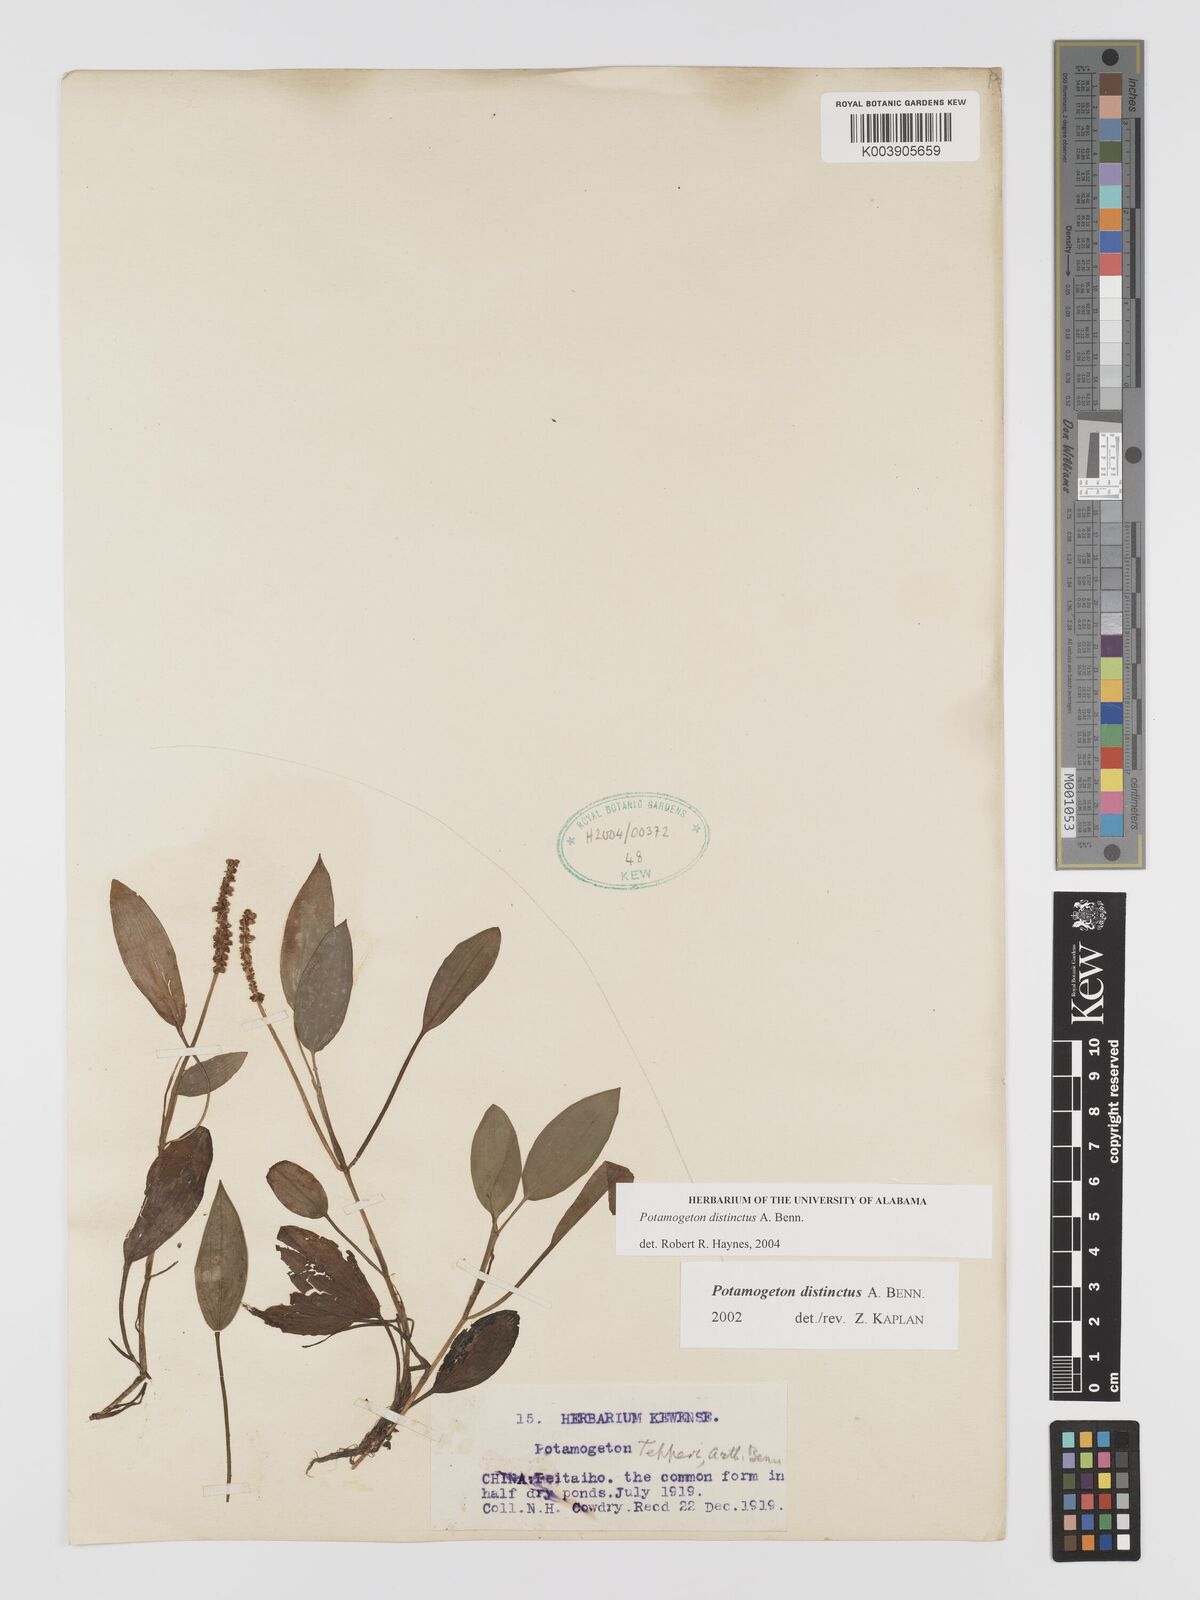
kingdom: Plantae
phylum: Tracheophyta
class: Liliopsida
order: Alismatales
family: Potamogetonaceae
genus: Potamogeton
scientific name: Potamogeton distinctus
